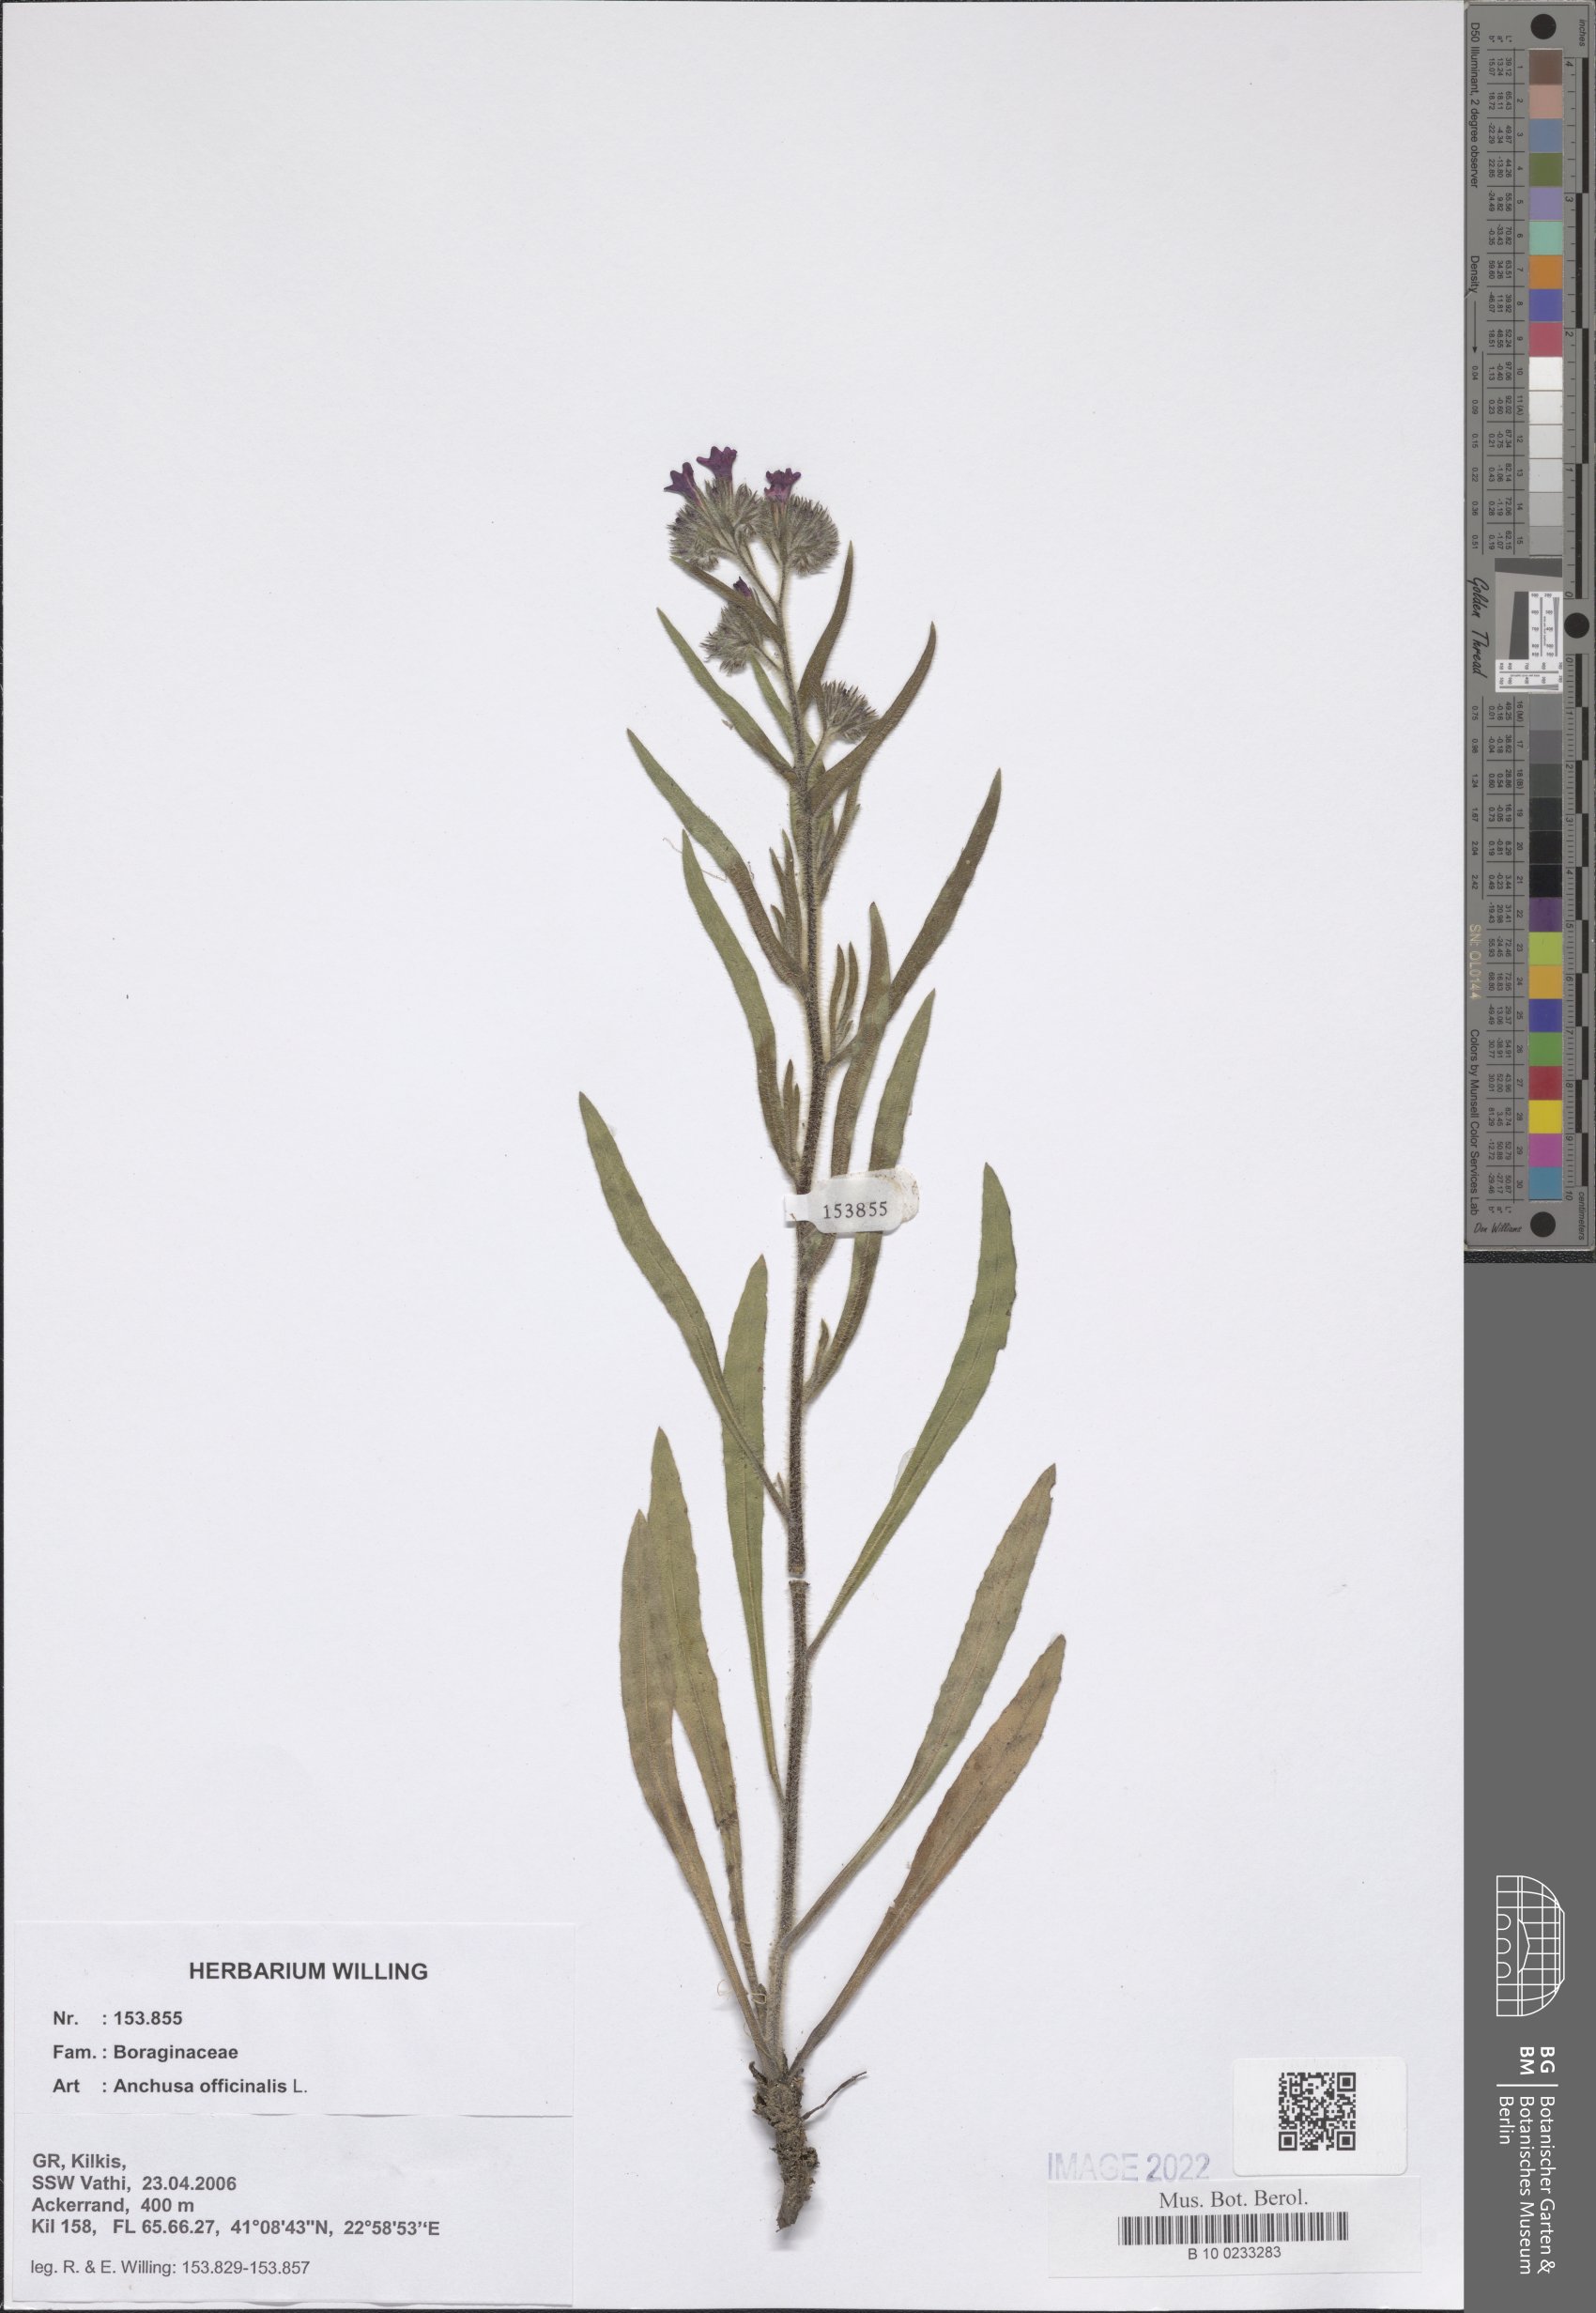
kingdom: Plantae
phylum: Tracheophyta
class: Magnoliopsida
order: Boraginales
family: Boraginaceae
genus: Anchusa
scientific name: Anchusa officinalis
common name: Alkanet
